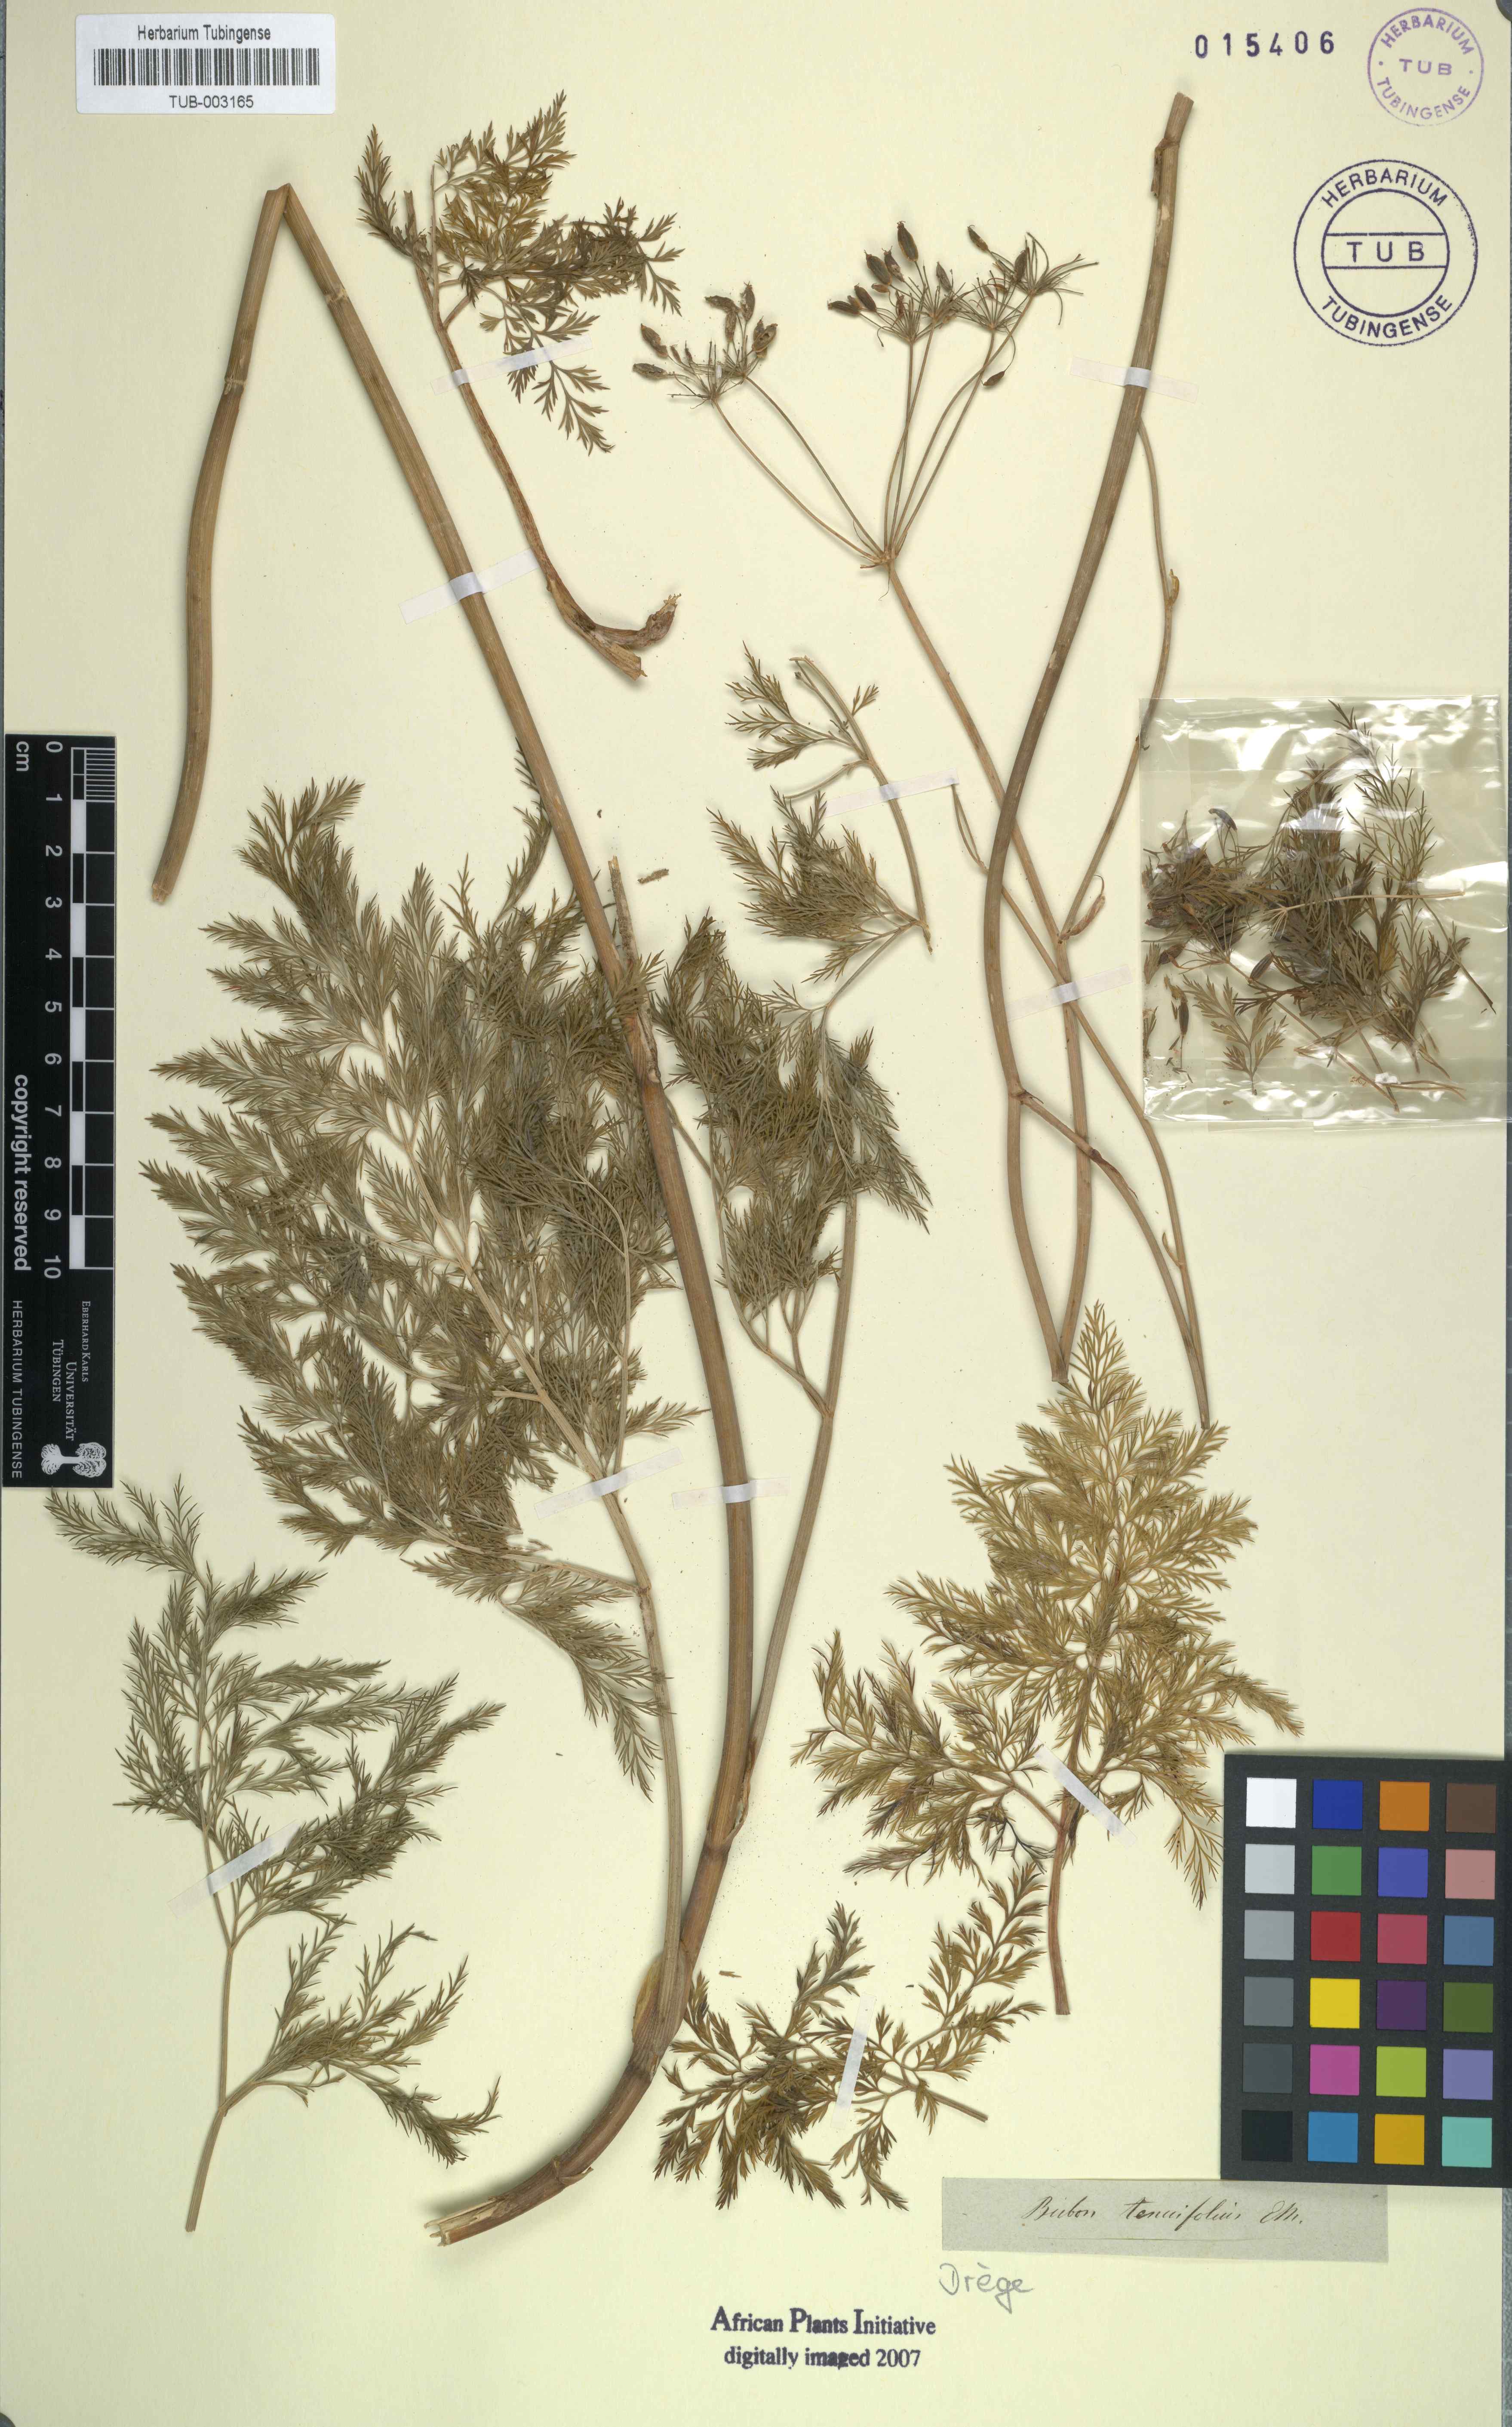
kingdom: Plantae
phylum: Tracheophyta
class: Magnoliopsida
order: Apiales
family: Apiaceae
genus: Notobubon
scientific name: Notobubon tenuifolium
